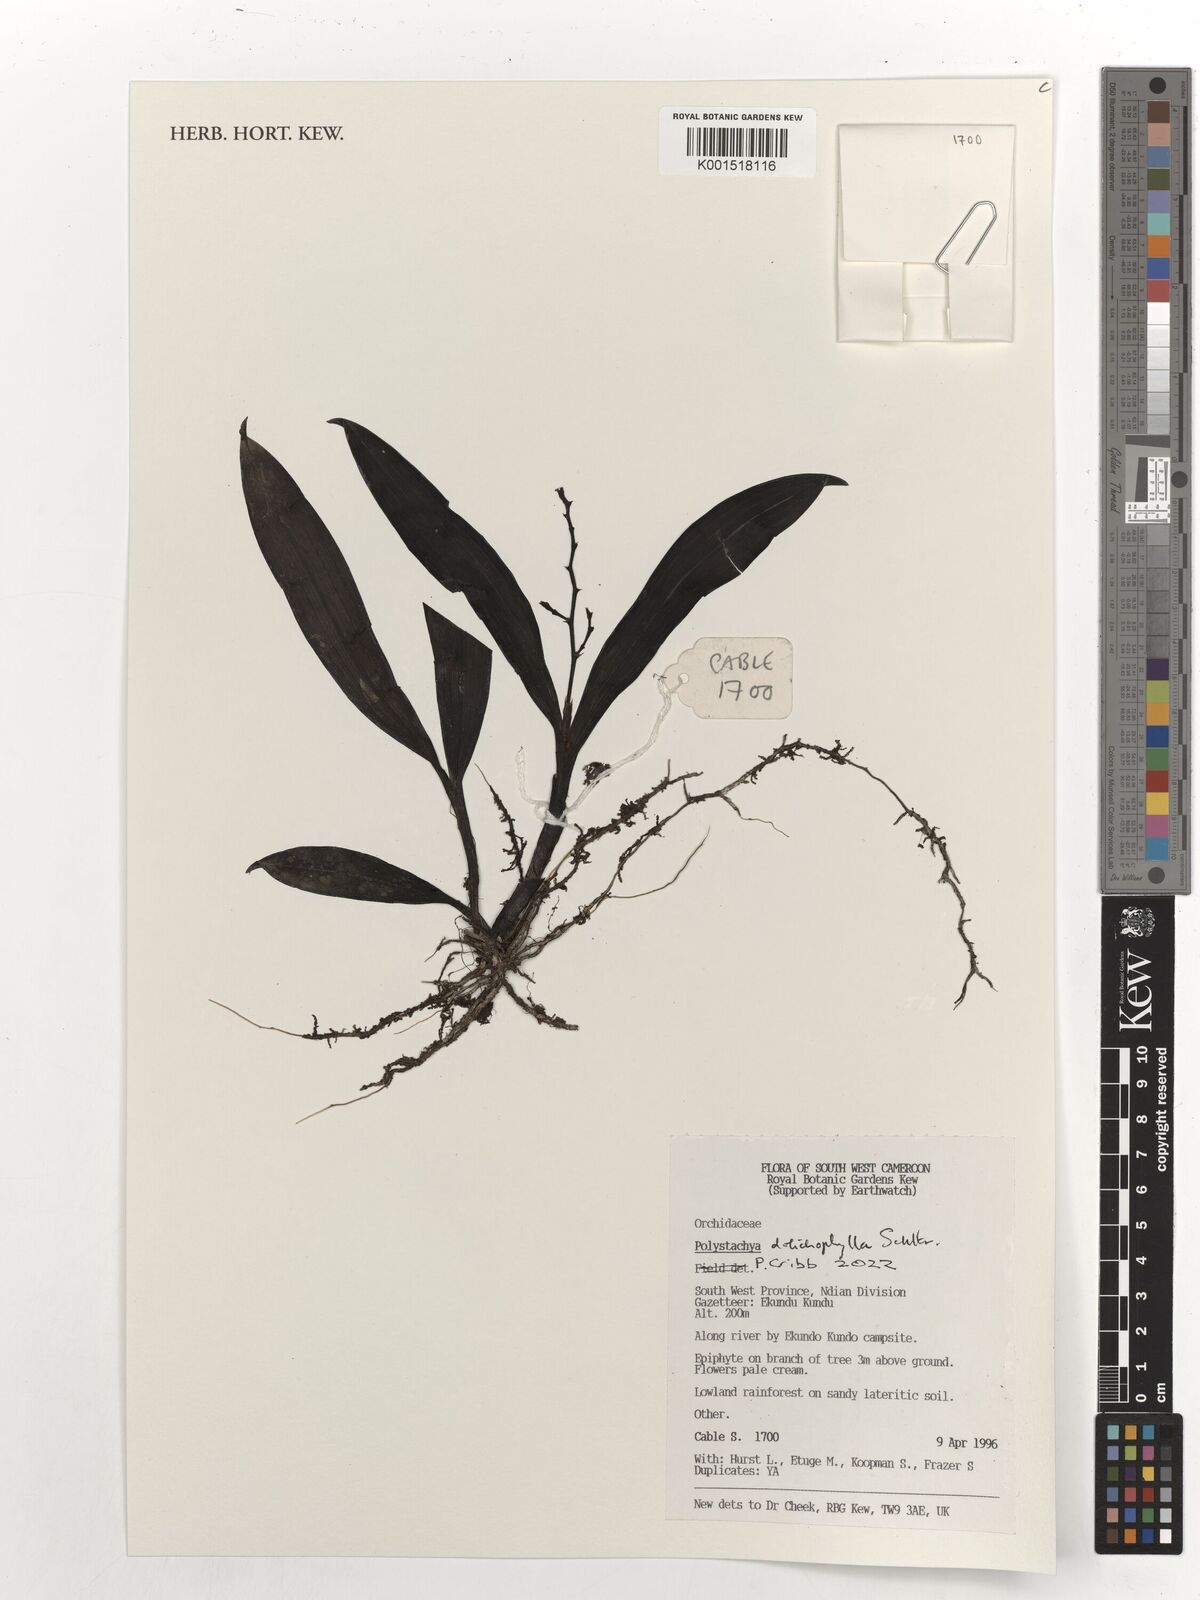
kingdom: Plantae
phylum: Tracheophyta
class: Liliopsida
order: Asparagales
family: Orchidaceae
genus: Polystachya
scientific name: Polystachya dolichophylla
